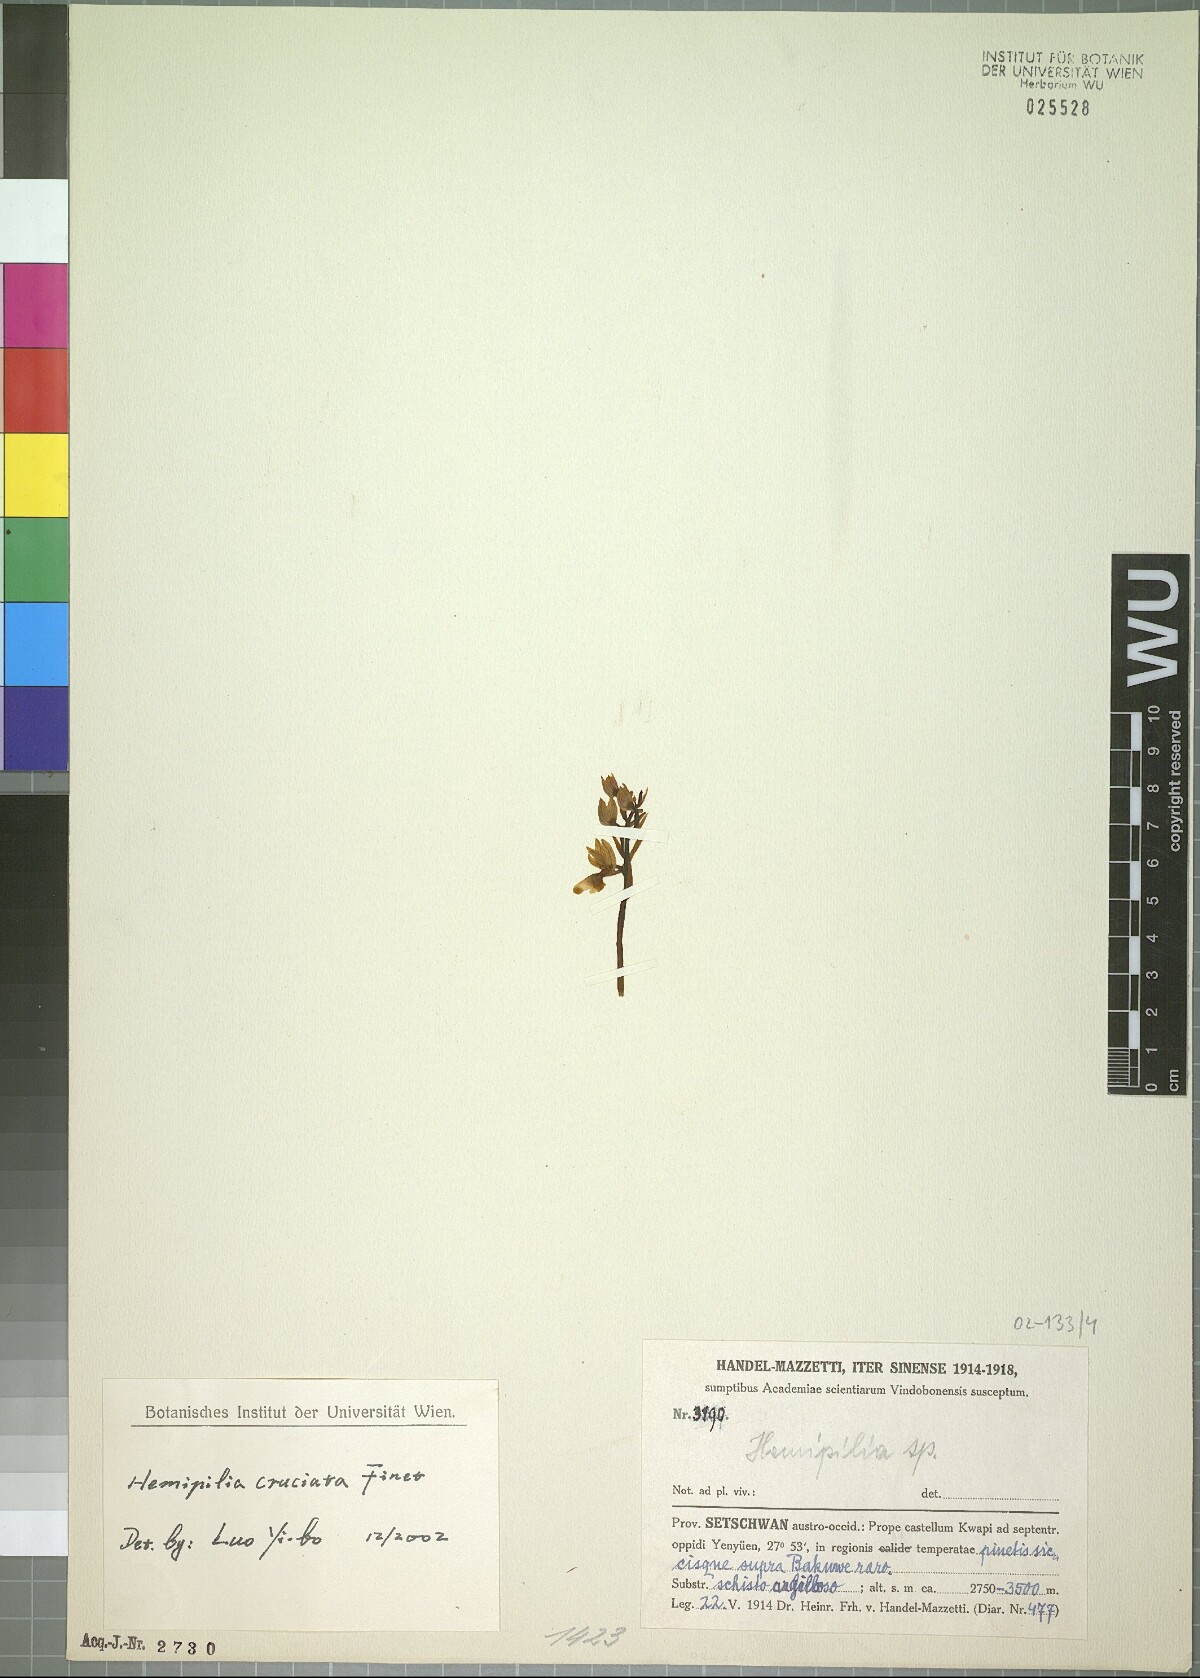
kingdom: Plantae
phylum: Tracheophyta
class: Liliopsida
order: Asparagales
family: Orchidaceae
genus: Hemipilia
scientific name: Hemipilia cordifolia
